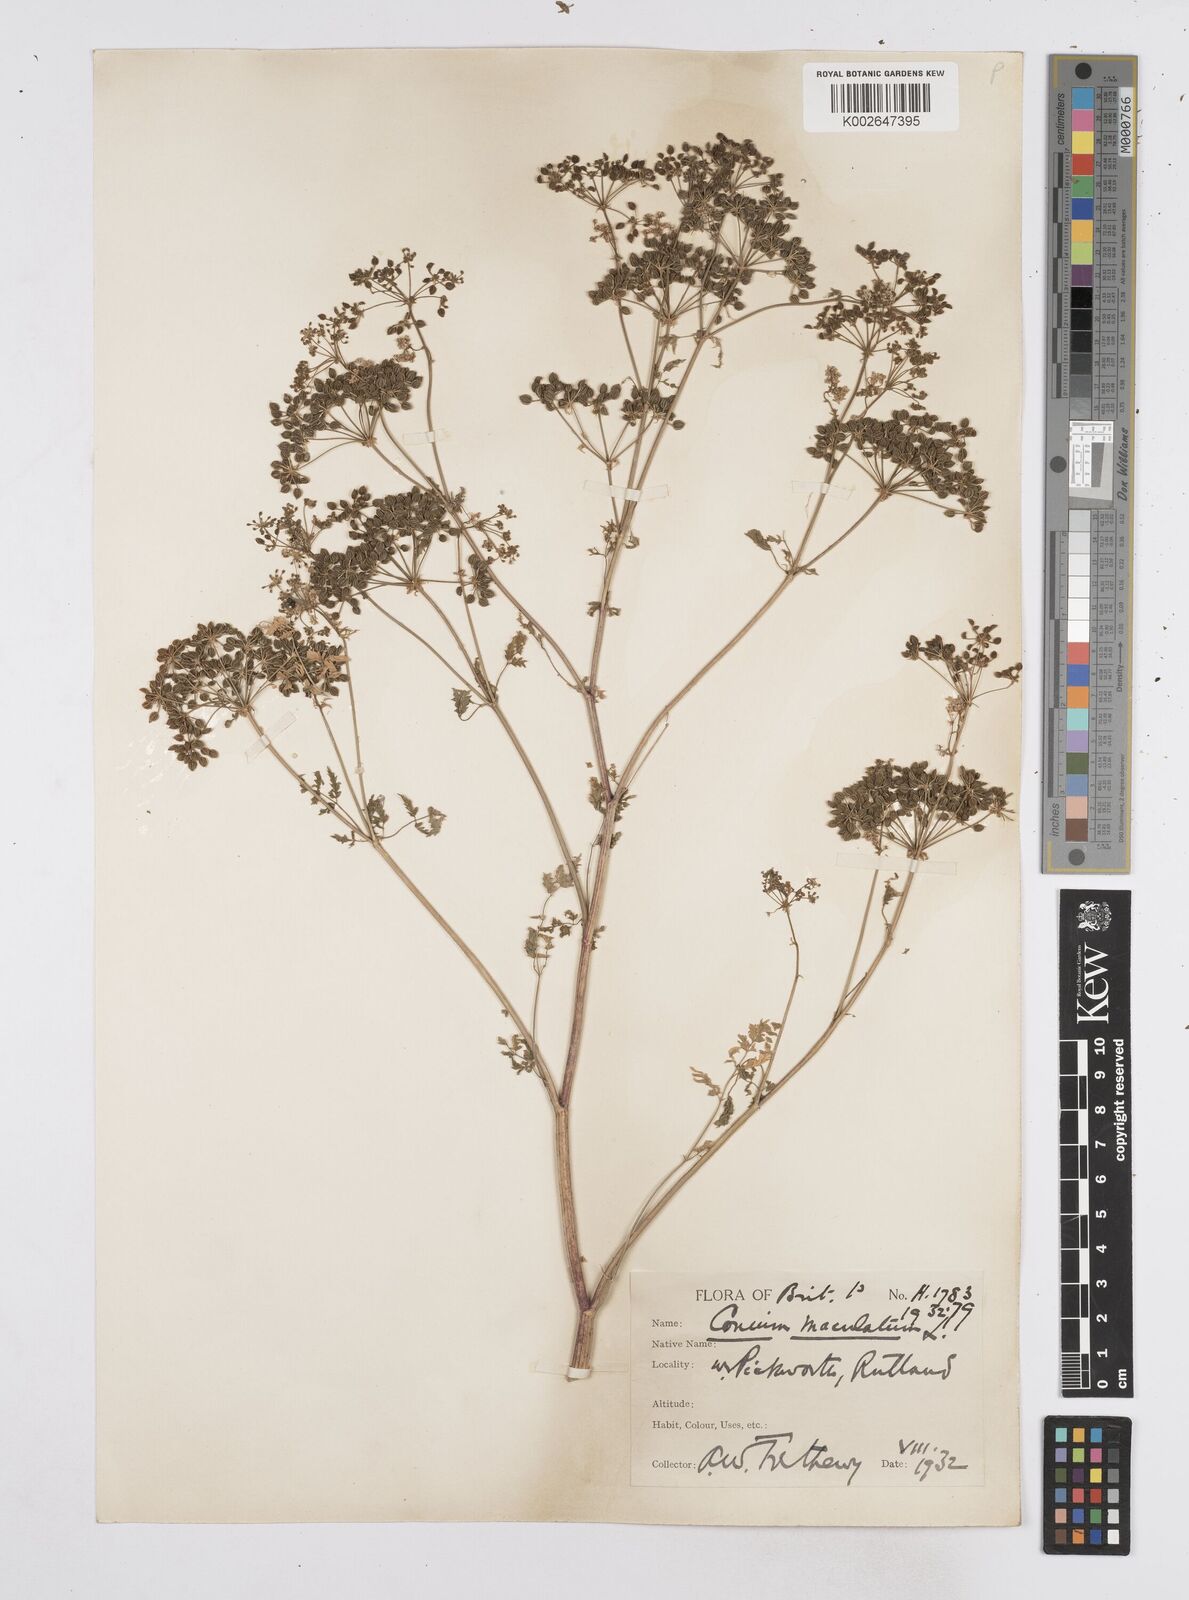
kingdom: Plantae
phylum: Tracheophyta
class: Magnoliopsida
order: Apiales
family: Apiaceae
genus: Conium
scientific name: Conium maculatum
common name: Hemlock
